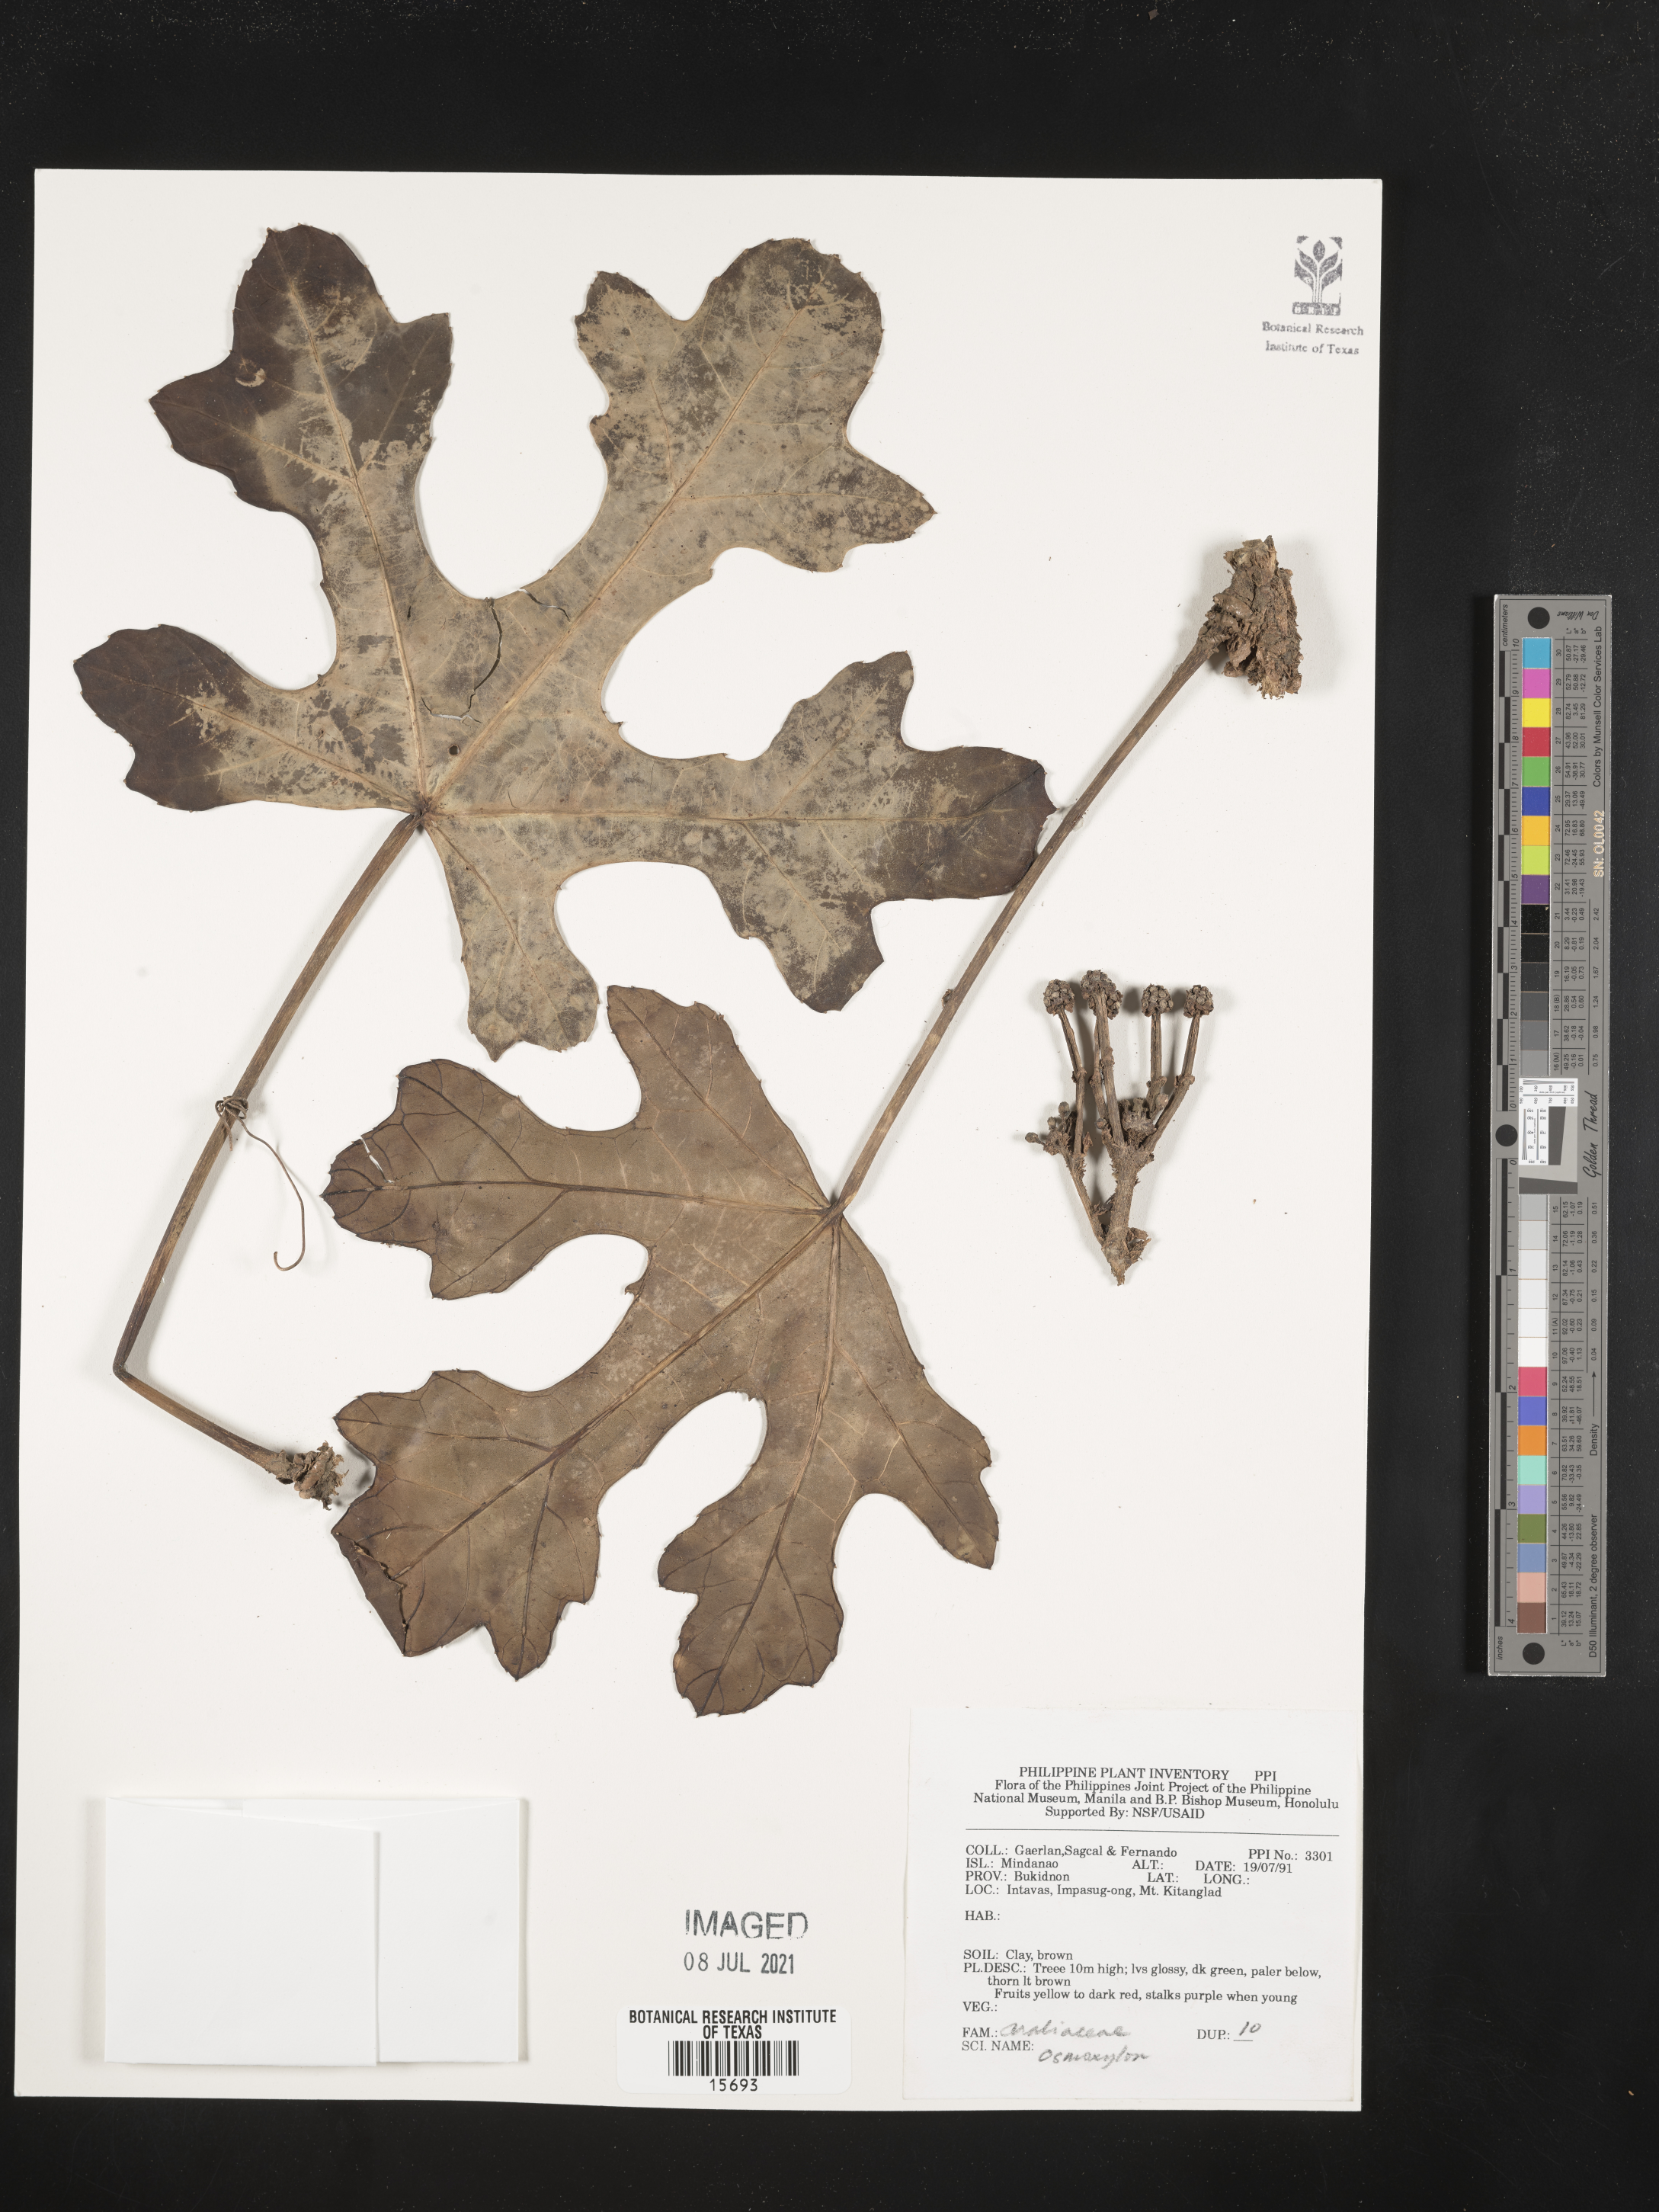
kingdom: Plantae
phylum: Tracheophyta
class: Magnoliopsida
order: Apiales
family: Araliaceae
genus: Osmoxylon
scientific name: Osmoxylon
